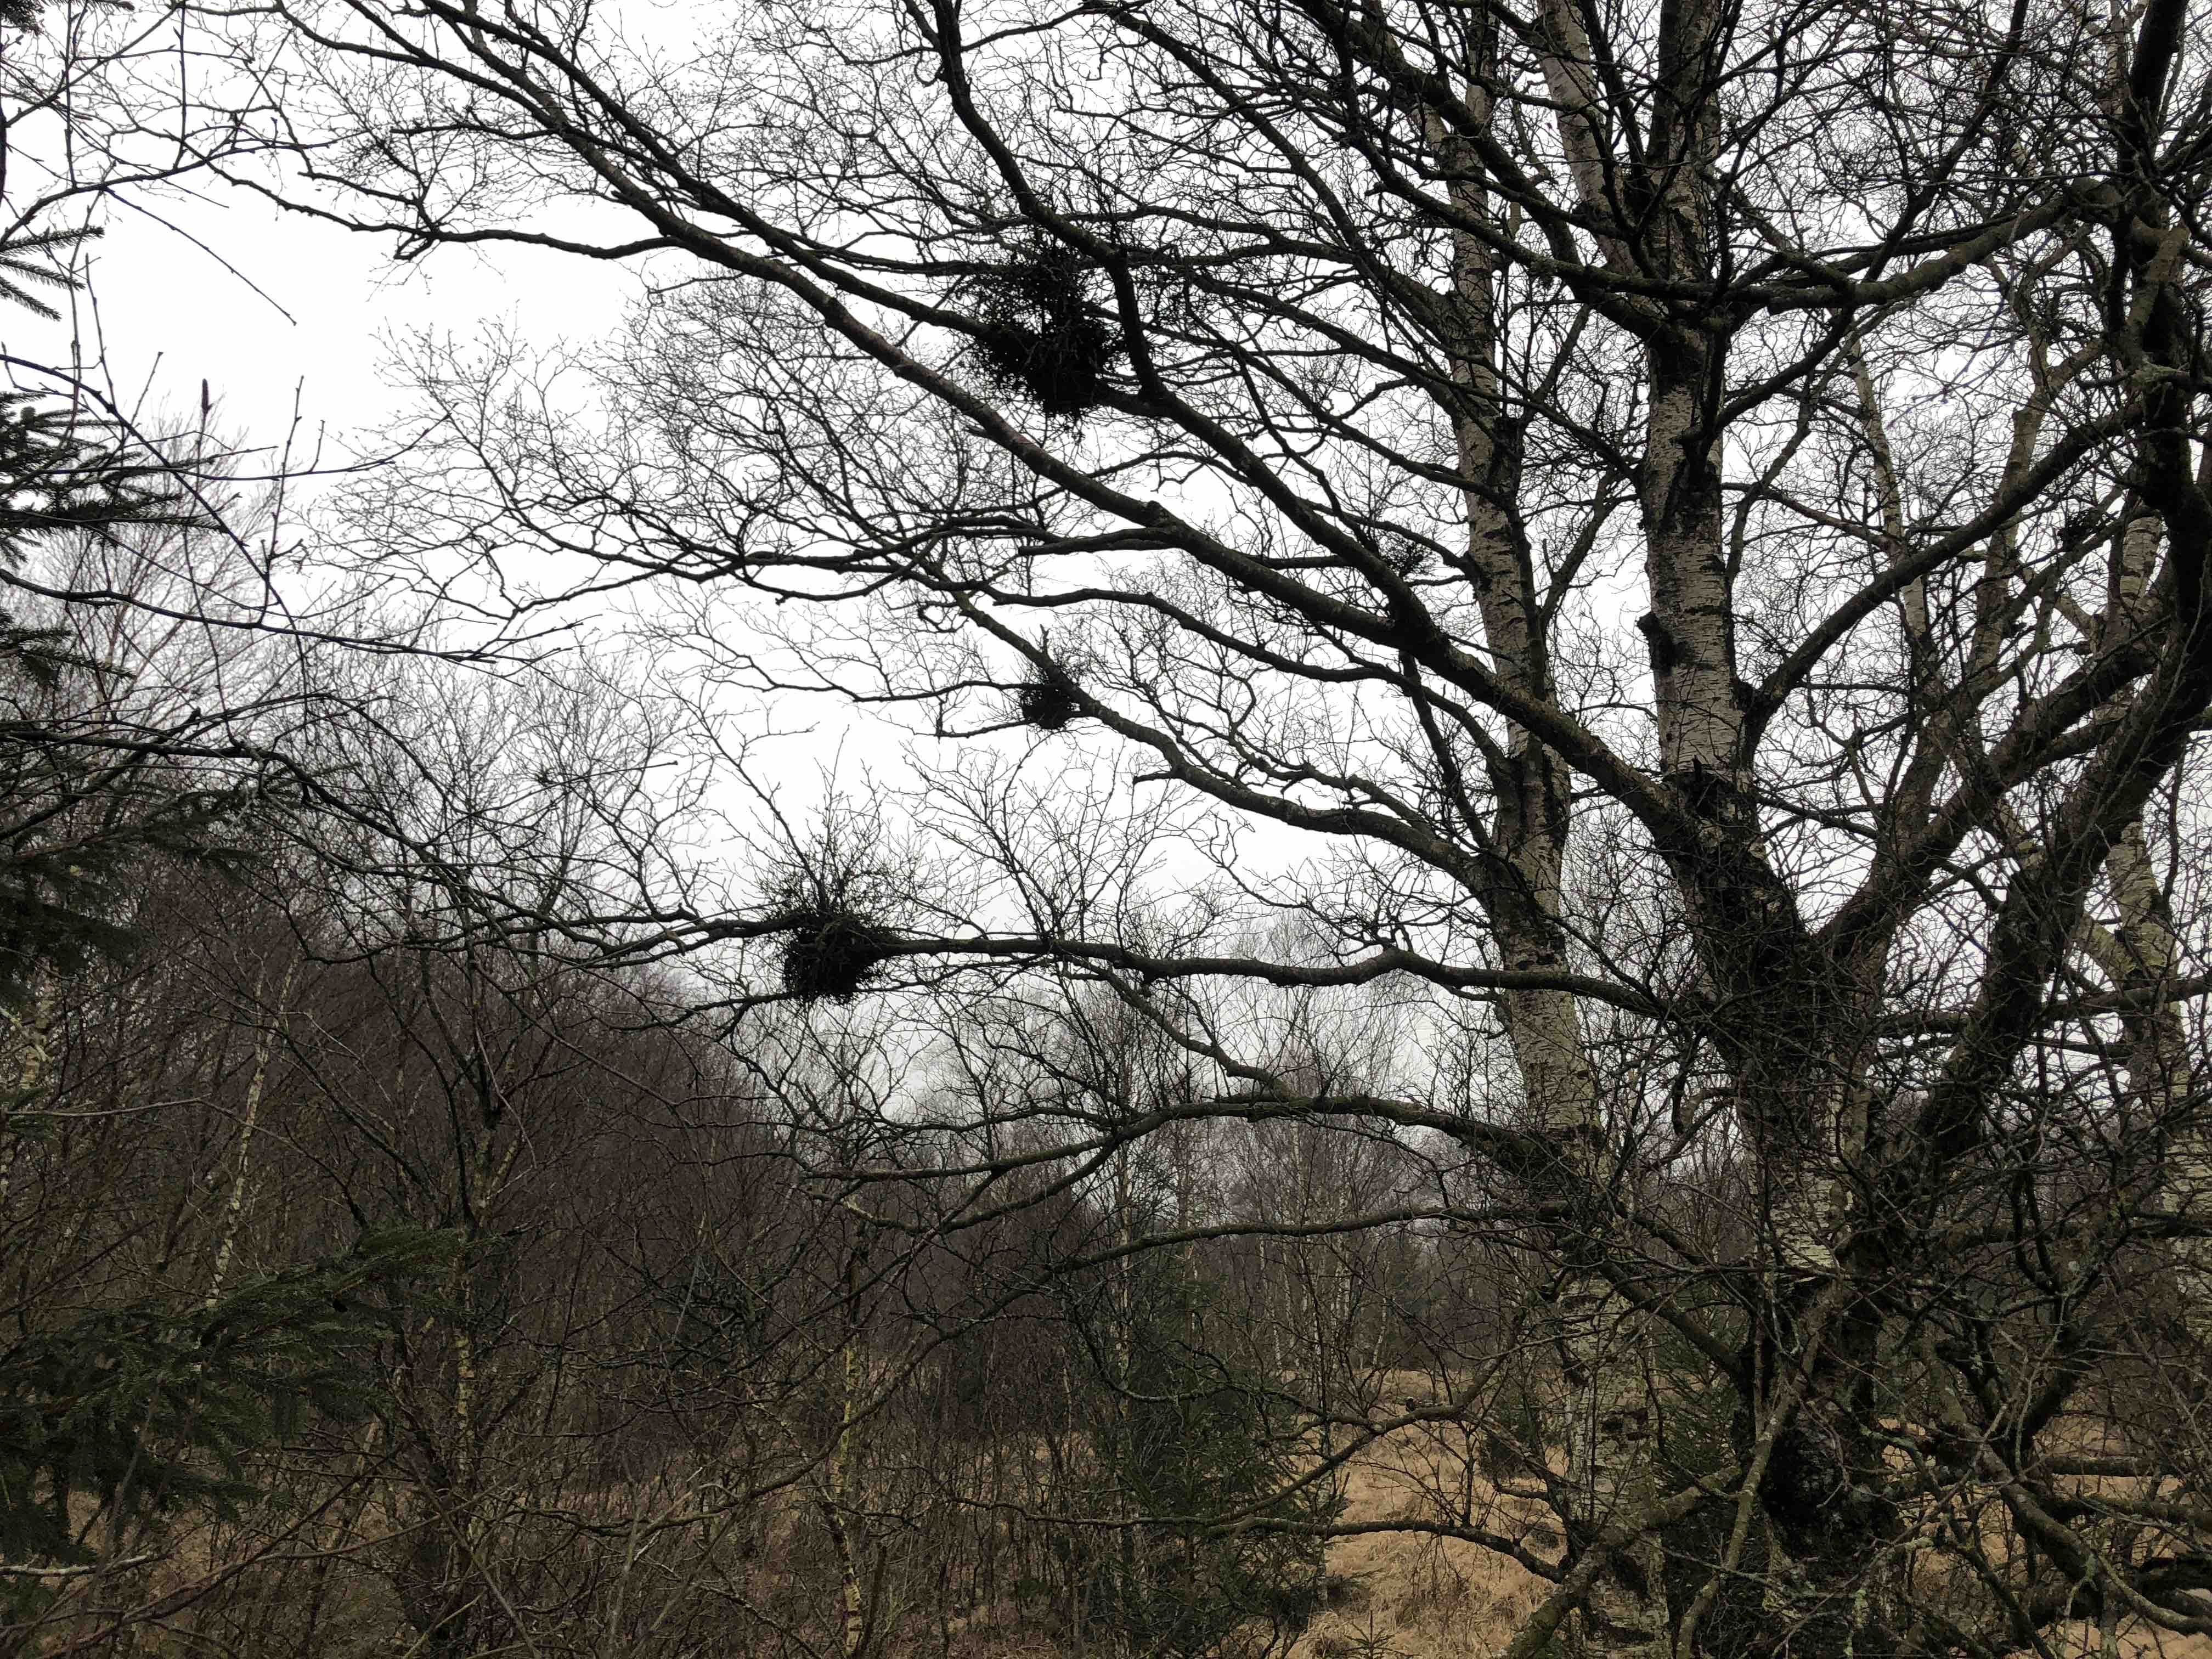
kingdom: Fungi
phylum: Ascomycota
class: Taphrinomycetes
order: Taphrinales
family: Taphrinaceae
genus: Taphrina
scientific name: Taphrina betulina
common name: hekse-sækdug
